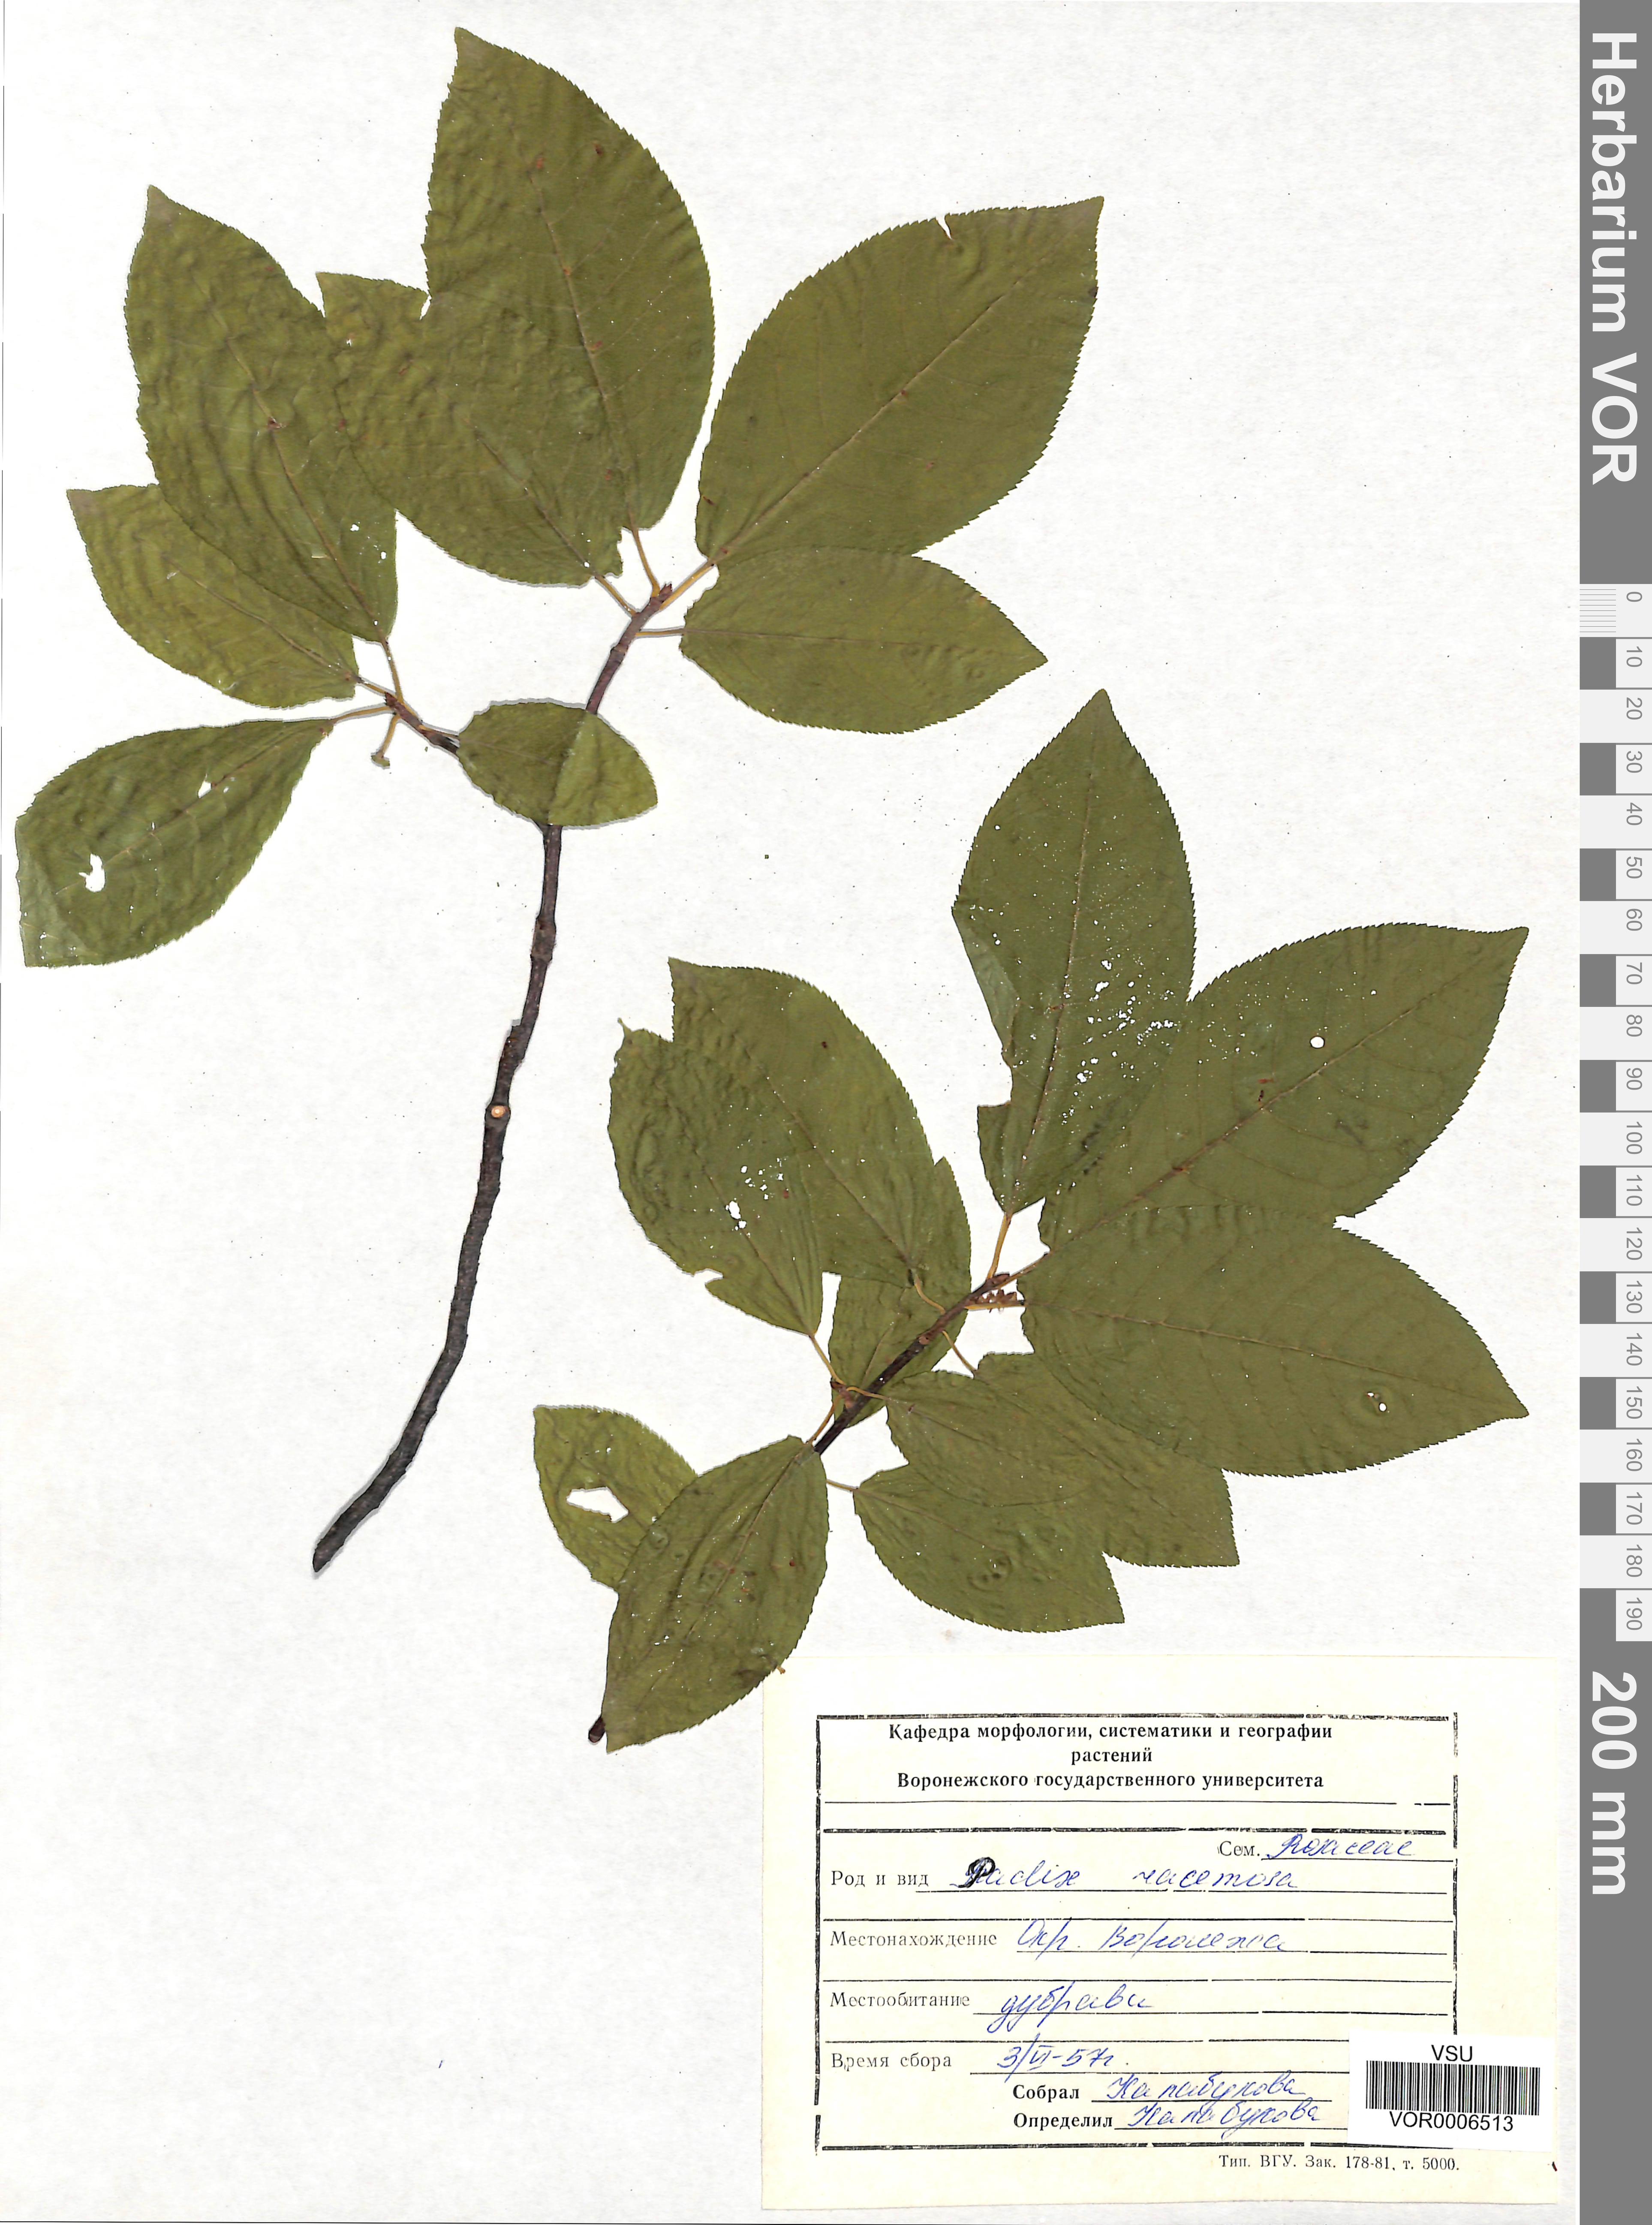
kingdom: Plantae
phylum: Tracheophyta
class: Magnoliopsida
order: Rosales
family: Rosaceae
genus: Prunus
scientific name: Prunus padus
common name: Bird cherry
